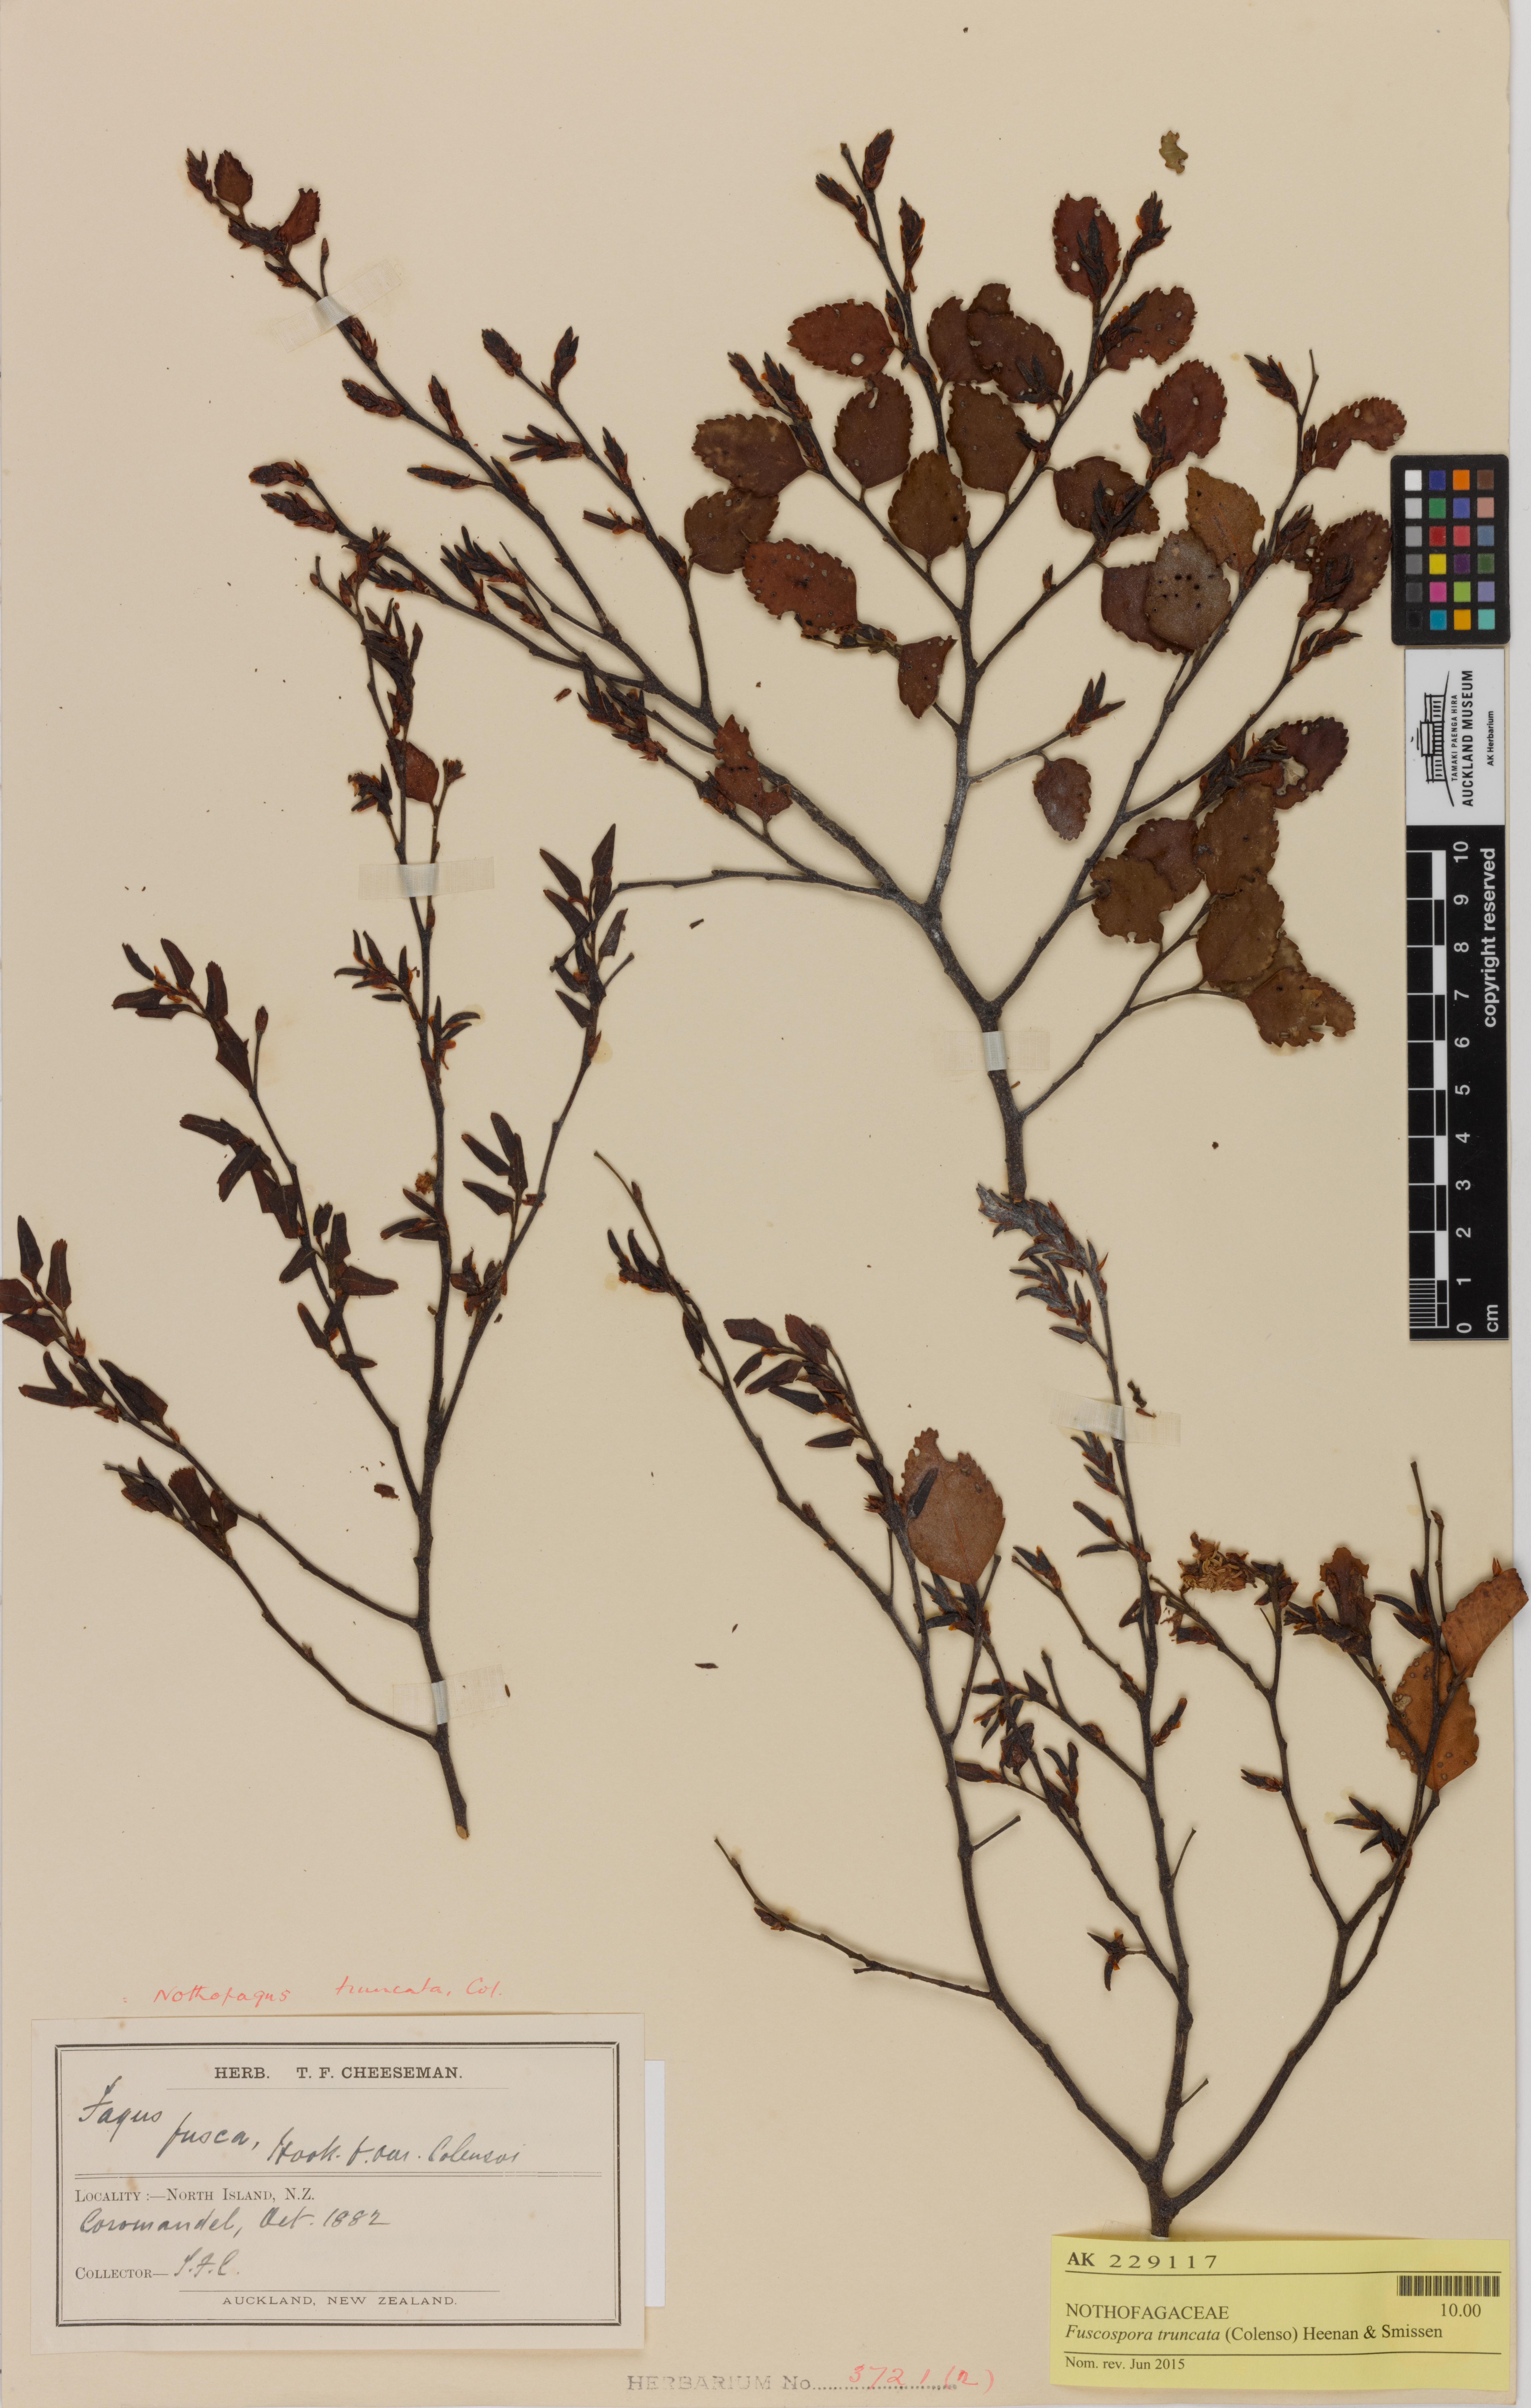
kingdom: Plantae
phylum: Tracheophyta
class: Magnoliopsida
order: Fagales
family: Nothofagaceae
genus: Nothofagus
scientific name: Nothofagus truncata
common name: Hard beech
